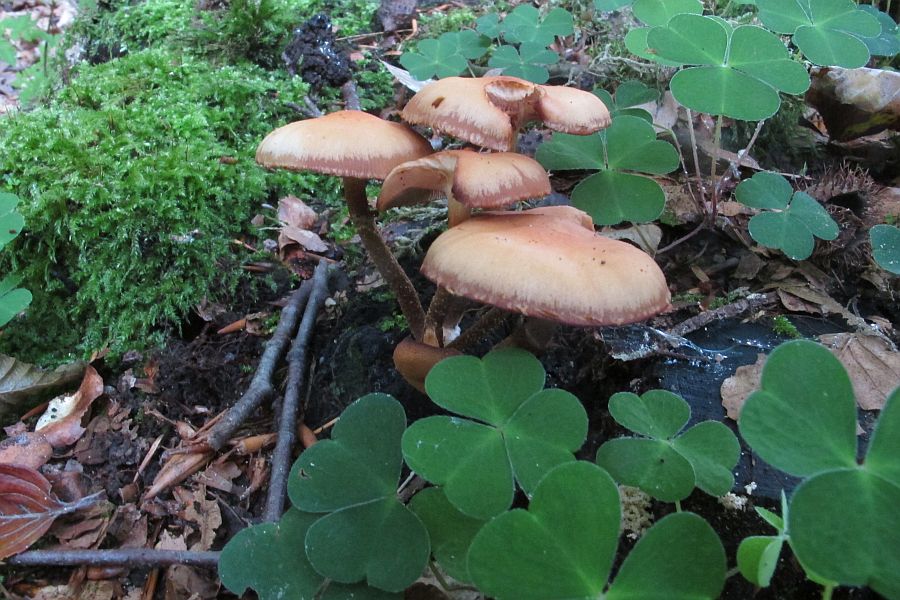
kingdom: Fungi
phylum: Basidiomycota
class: Agaricomycetes
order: Agaricales
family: Strophariaceae
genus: Kuehneromyces
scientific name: Kuehneromyces mutabilis
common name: foranderlig skælhat
